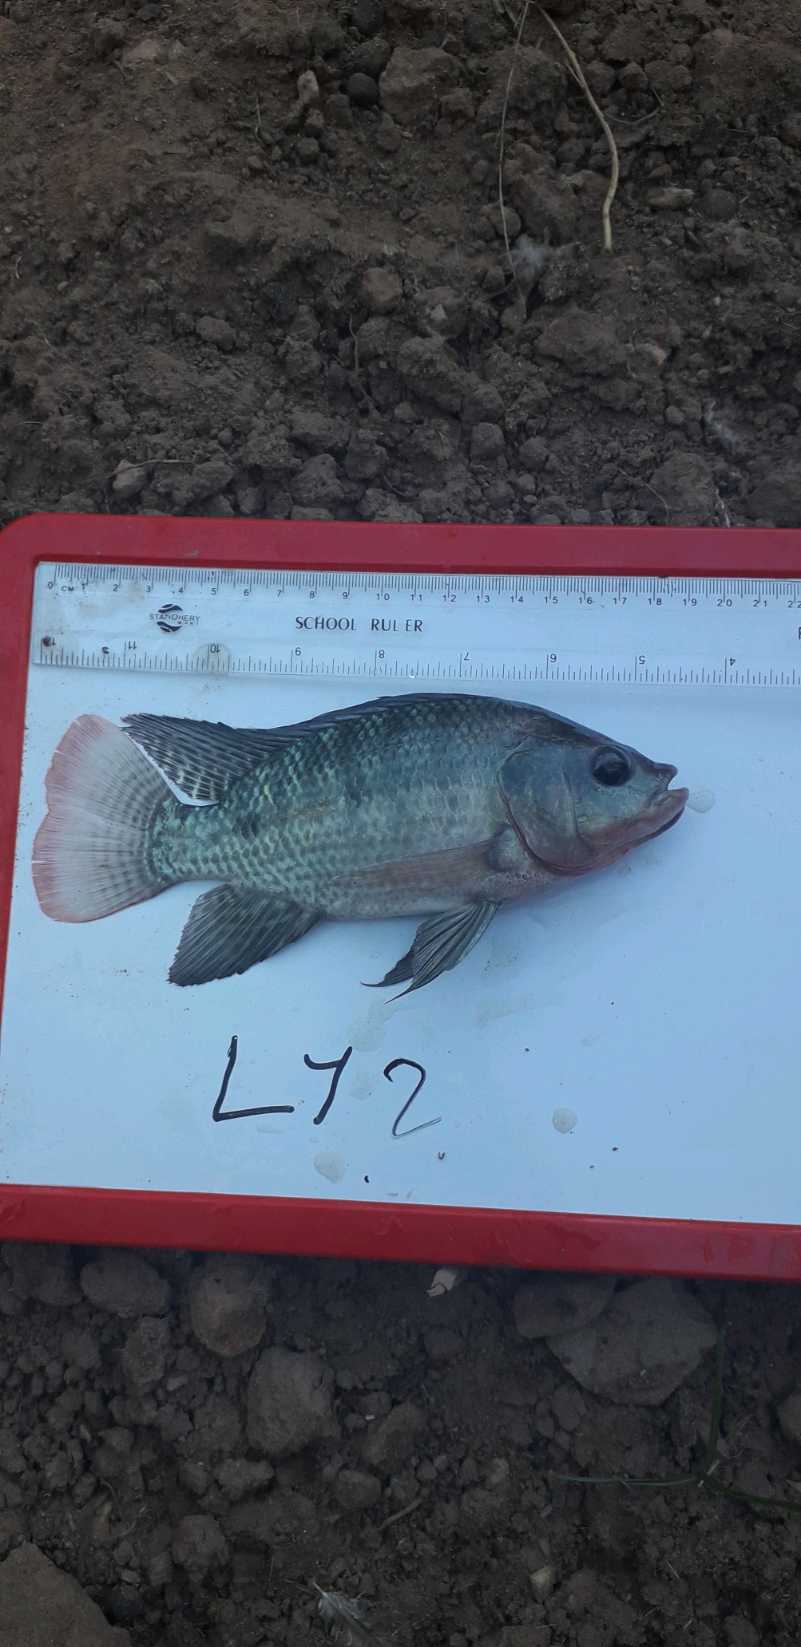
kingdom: Animalia
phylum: Chordata
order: Perciformes
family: Cichlidae
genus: Oreochromis
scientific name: Oreochromis niloticus
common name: Nile tilapia
